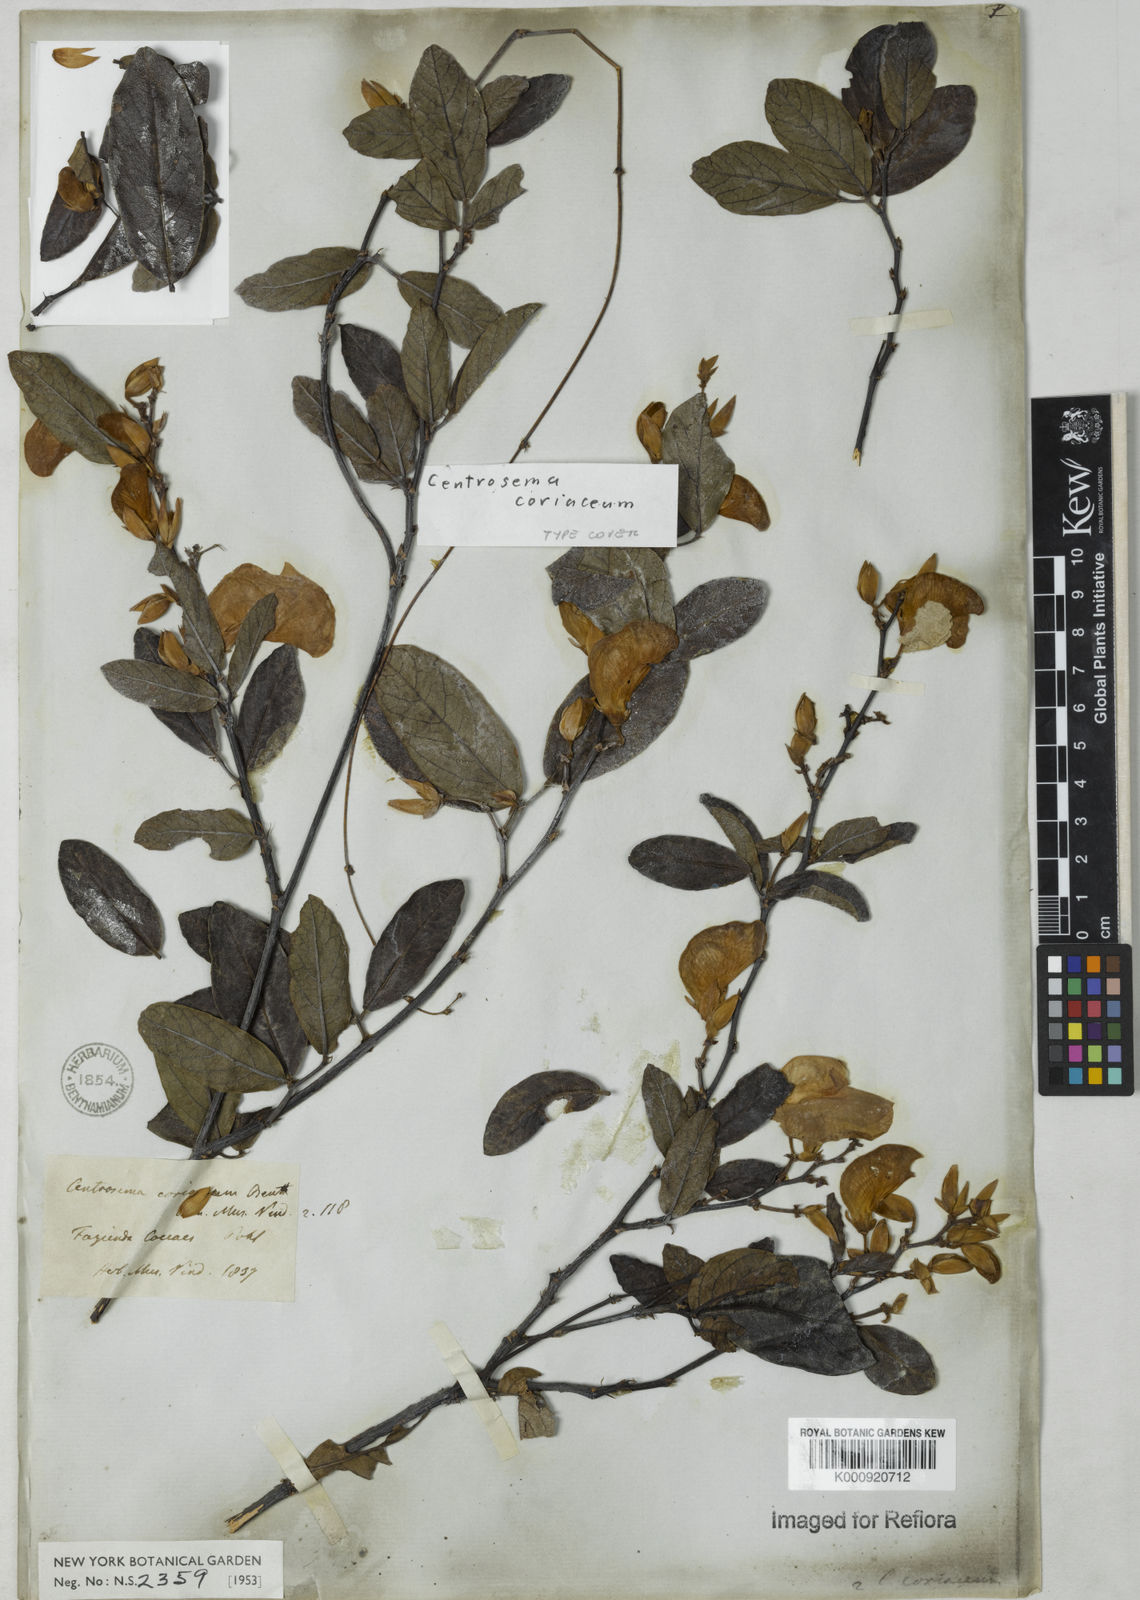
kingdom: Plantae
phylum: Tracheophyta
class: Magnoliopsida
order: Fabales
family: Fabaceae
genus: Centrosema
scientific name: Centrosema coriaceum
